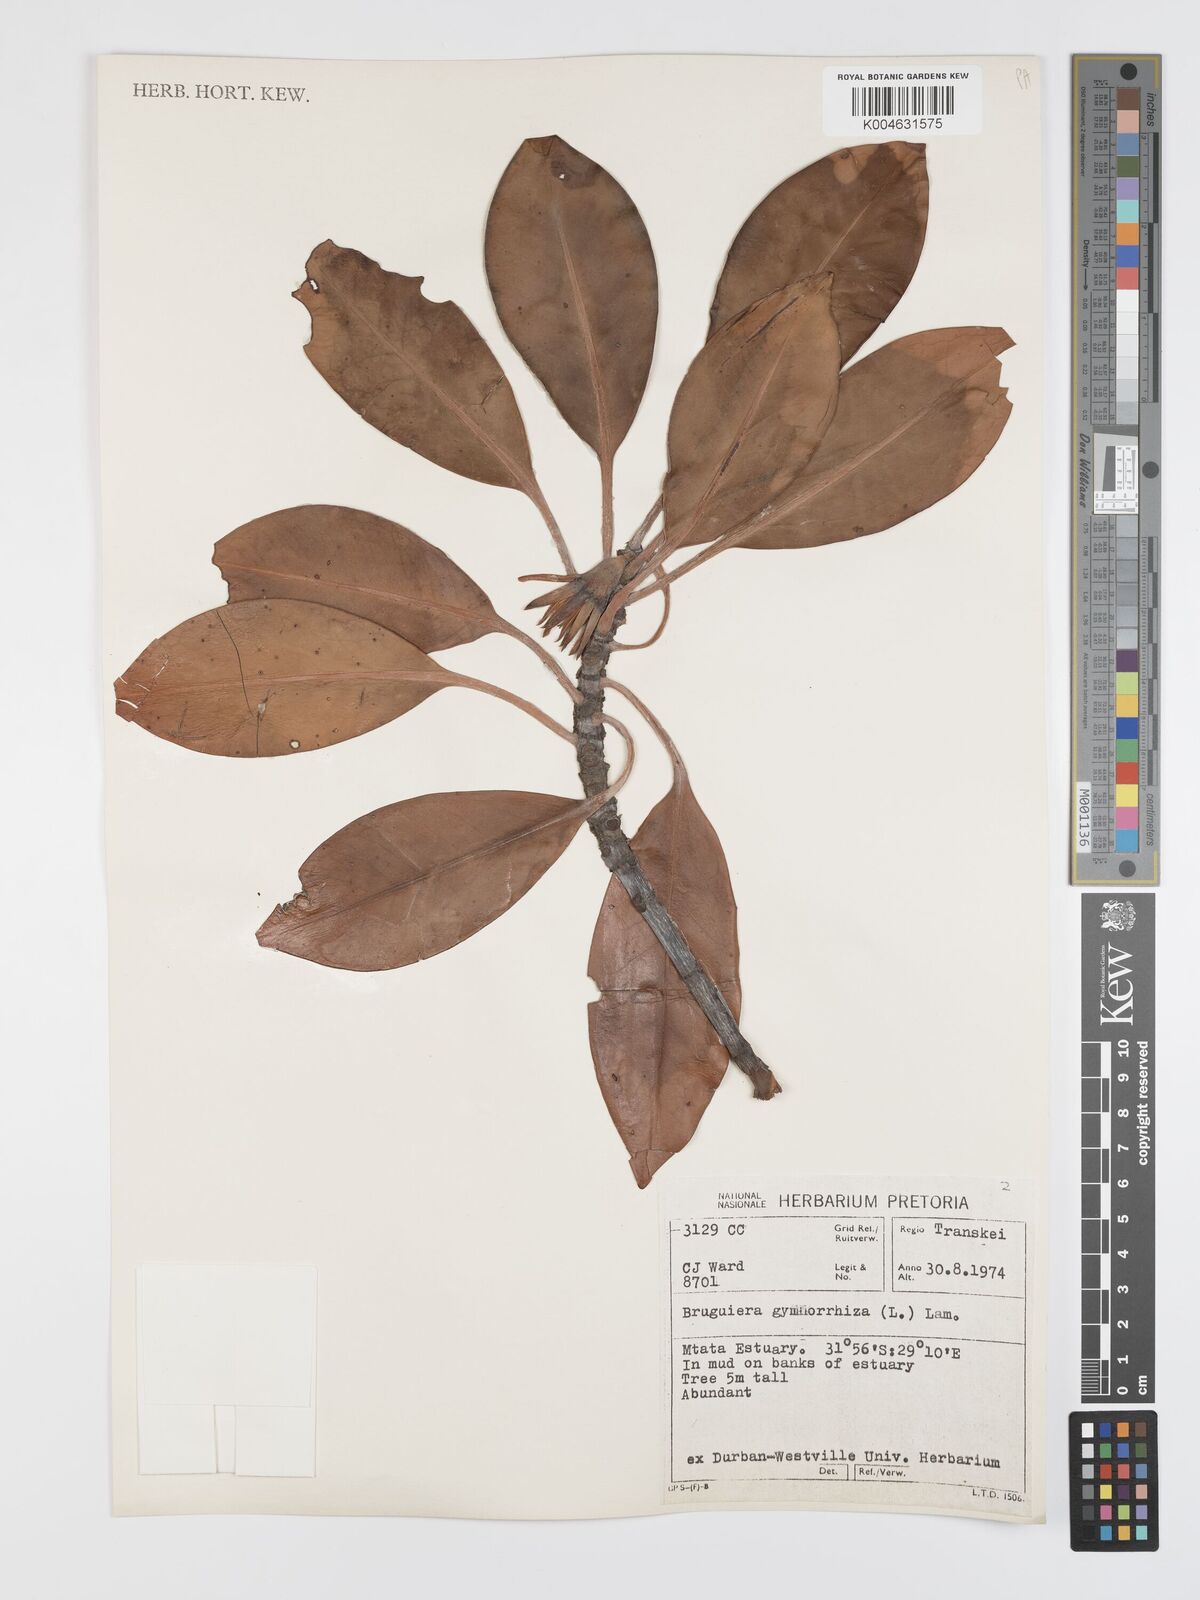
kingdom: Plantae
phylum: Tracheophyta
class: Magnoliopsida
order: Malpighiales
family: Rhizophoraceae
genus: Bruguiera
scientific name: Bruguiera gymnorhiza
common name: Oriental mangrove
